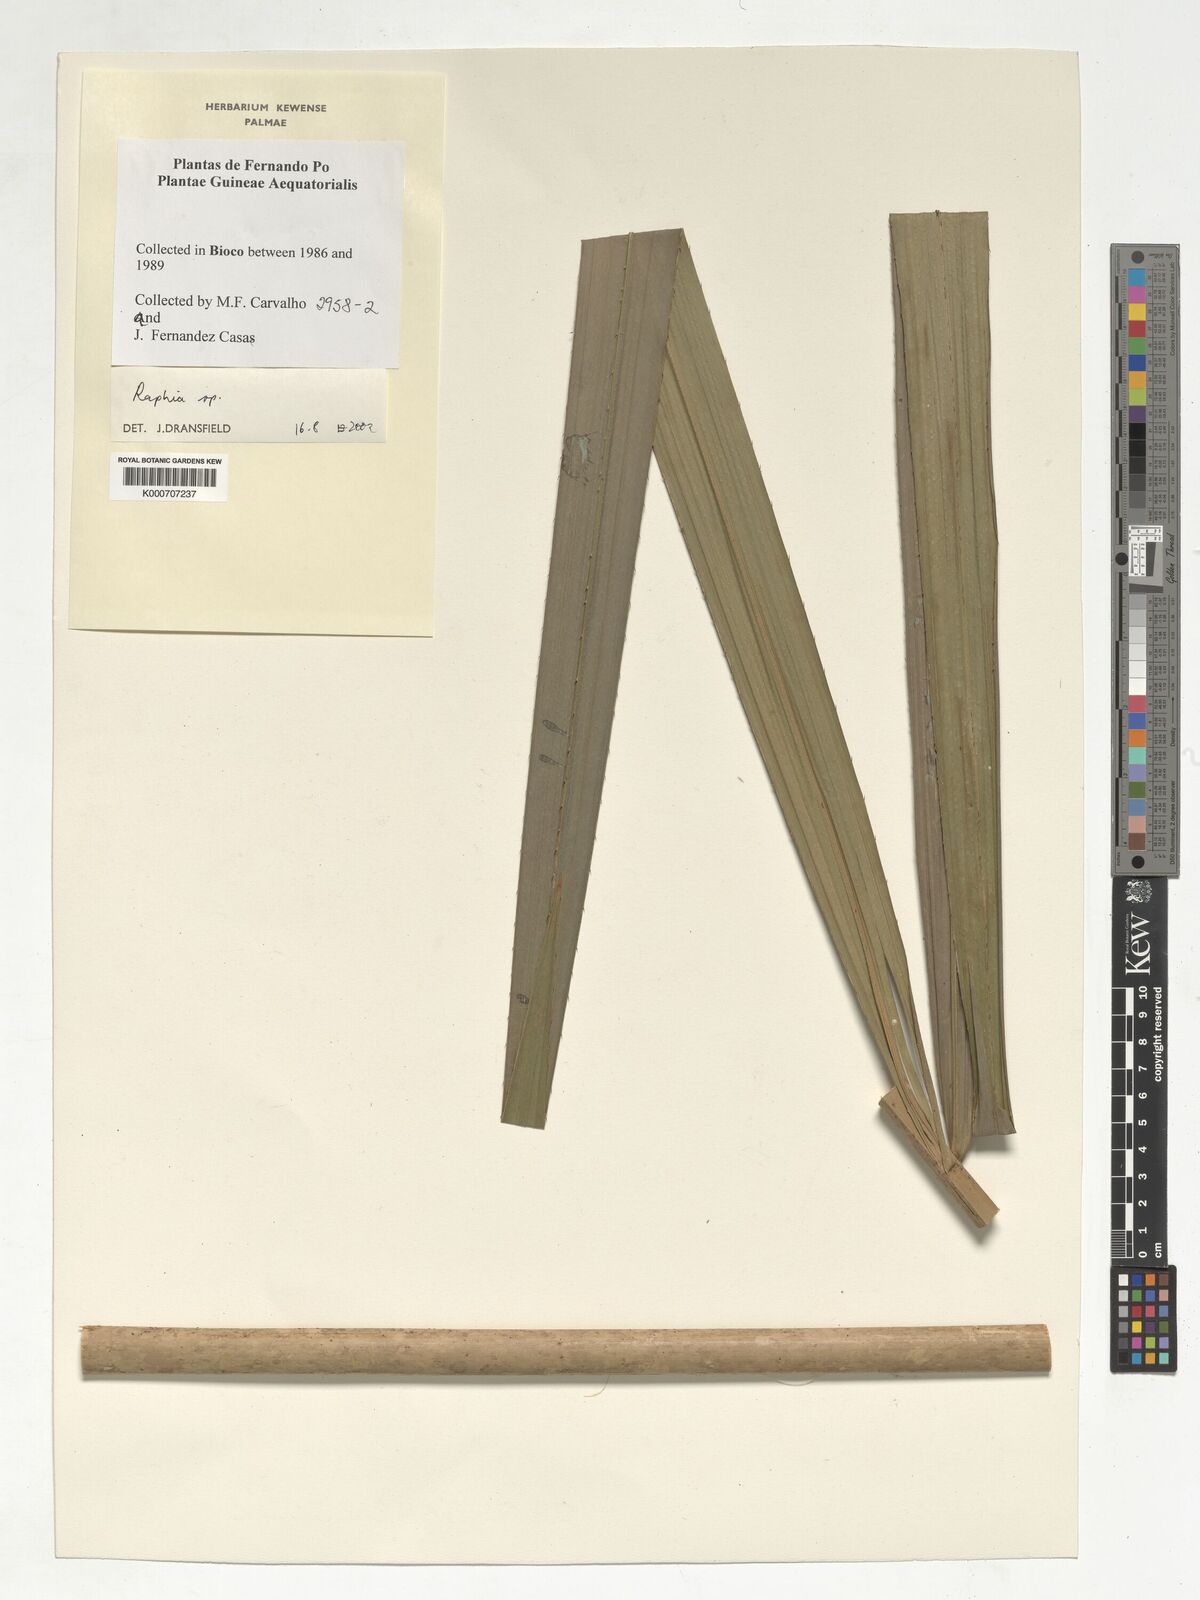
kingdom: Plantae
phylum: Tracheophyta
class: Liliopsida
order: Arecales
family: Arecaceae
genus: Raphia
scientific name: Raphia
